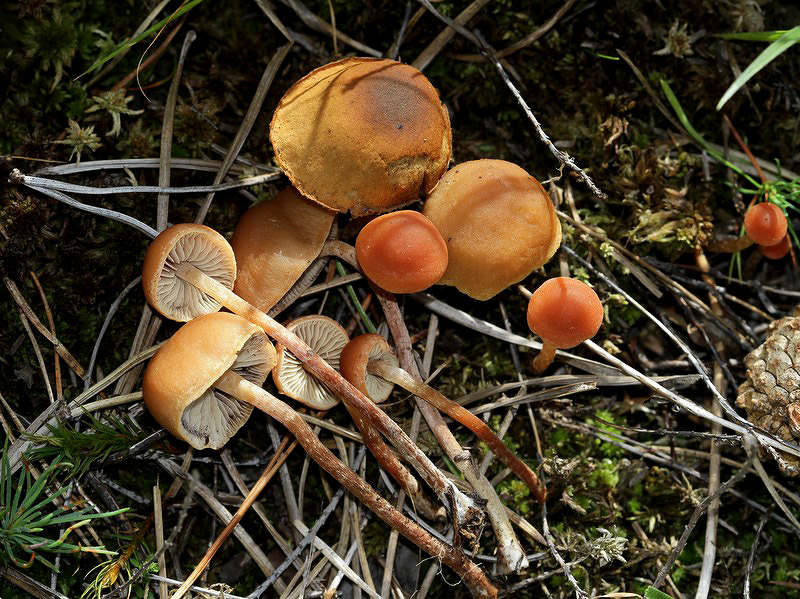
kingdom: Fungi
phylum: Basidiomycota
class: Agaricomycetes
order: Agaricales
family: Strophariaceae
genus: Bogbodia
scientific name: Bogbodia uda
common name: tørve-svovlhat
